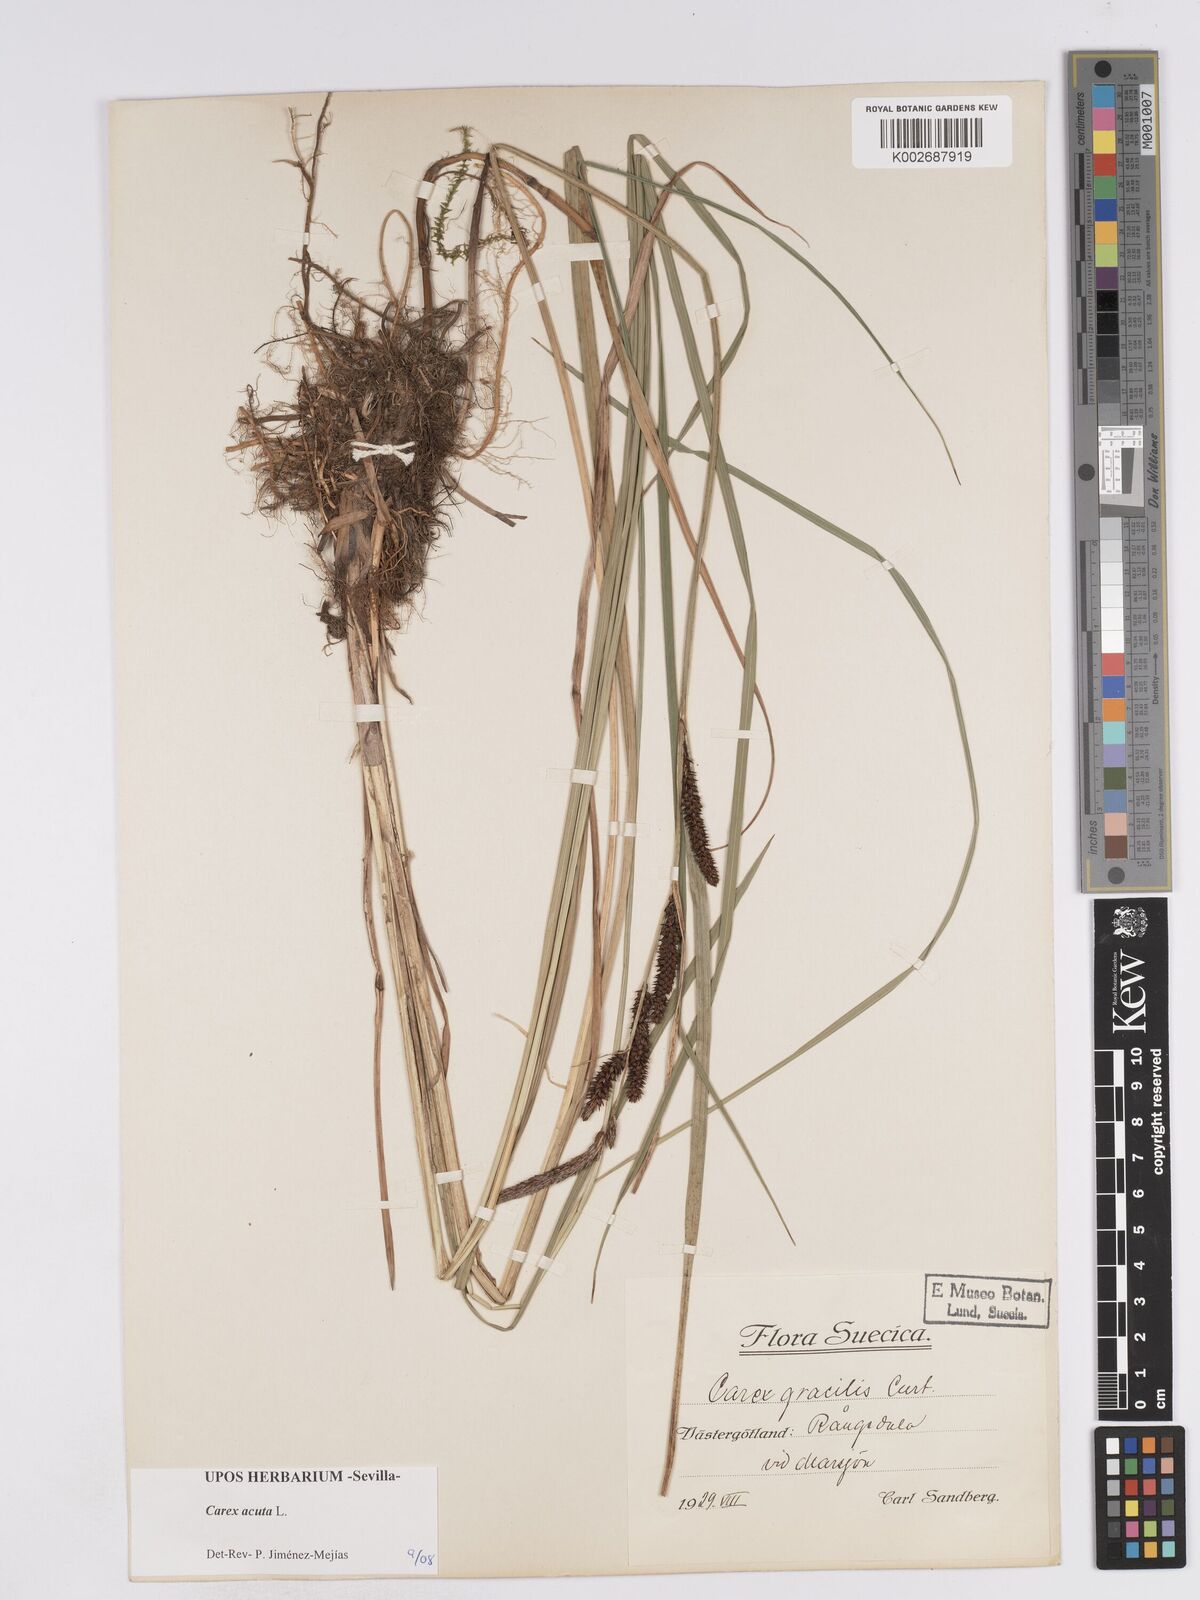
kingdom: Plantae
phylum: Tracheophyta
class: Liliopsida
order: Poales
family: Cyperaceae
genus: Carex
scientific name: Carex acuta
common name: Slender tufted-sedge
